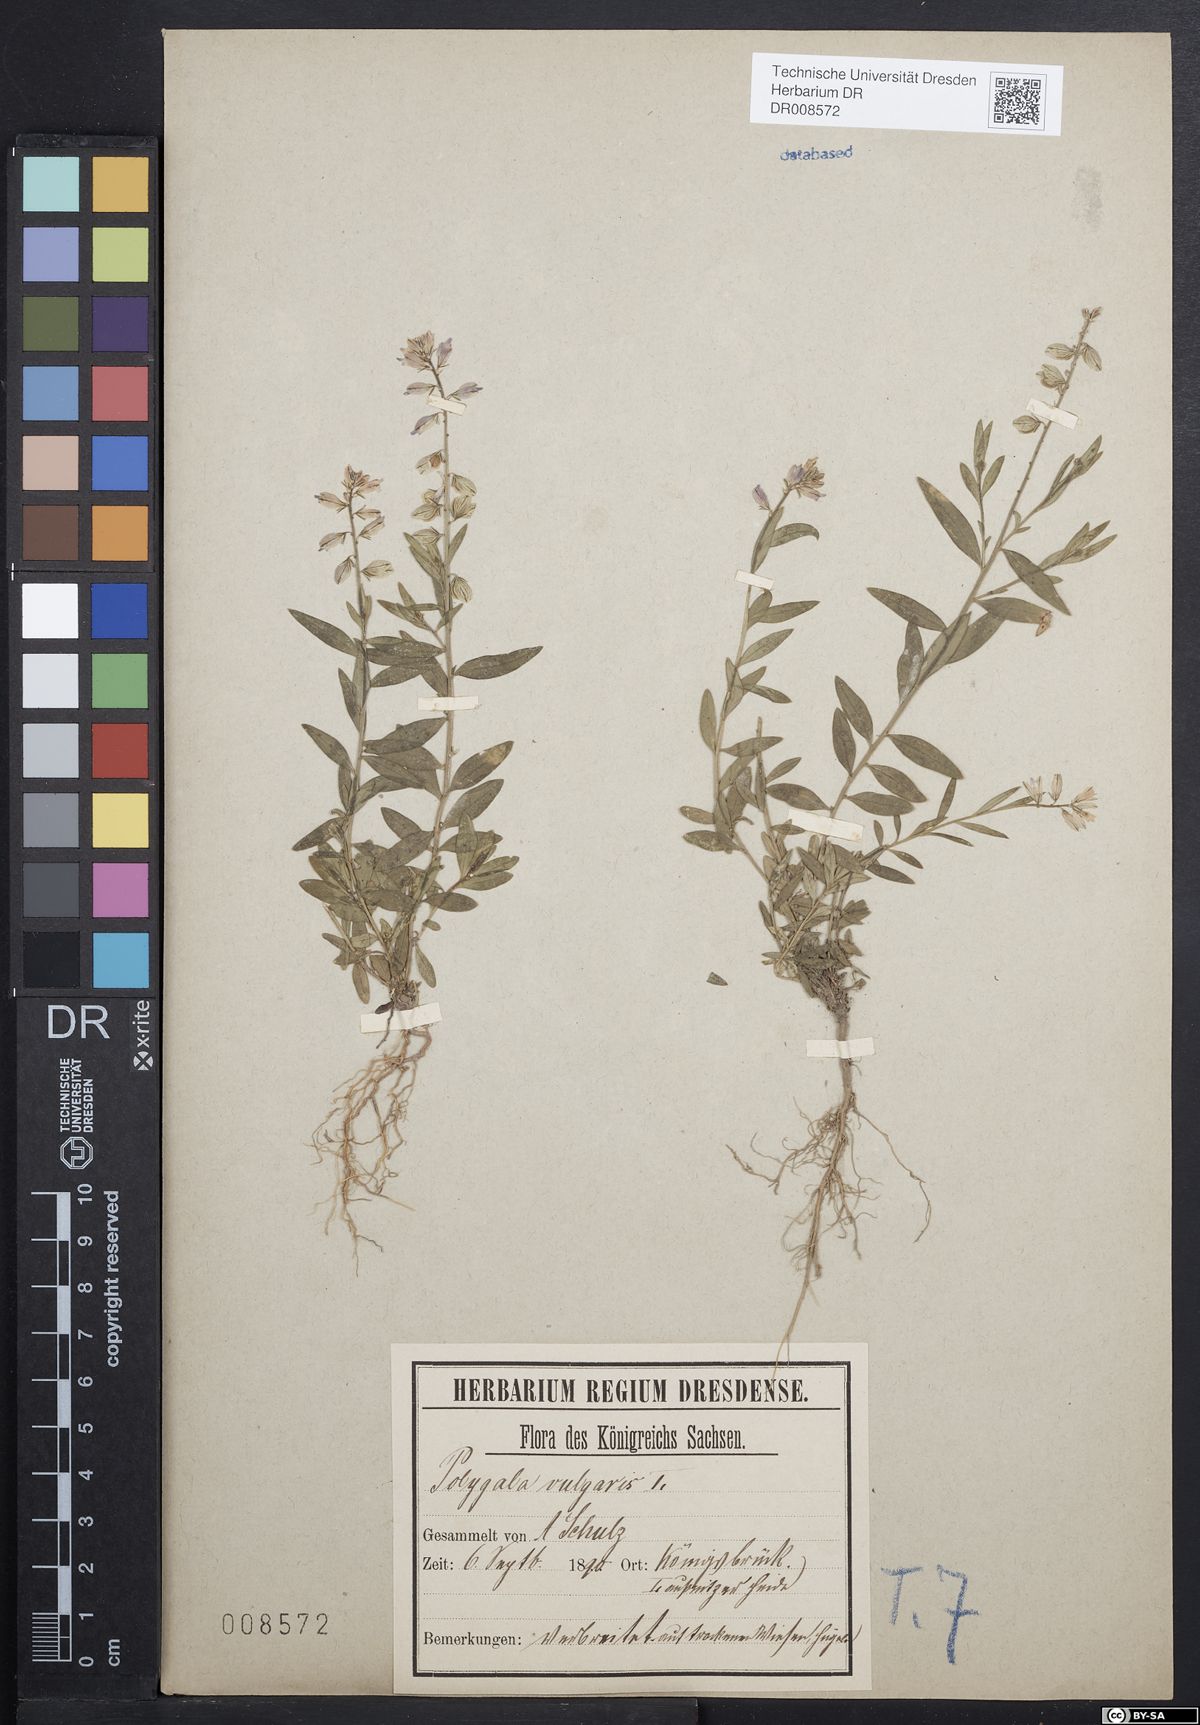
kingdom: Plantae
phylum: Tracheophyta
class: Magnoliopsida
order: Fabales
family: Polygalaceae
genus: Polygala
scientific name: Polygala vulgaris
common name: Common milkwort
